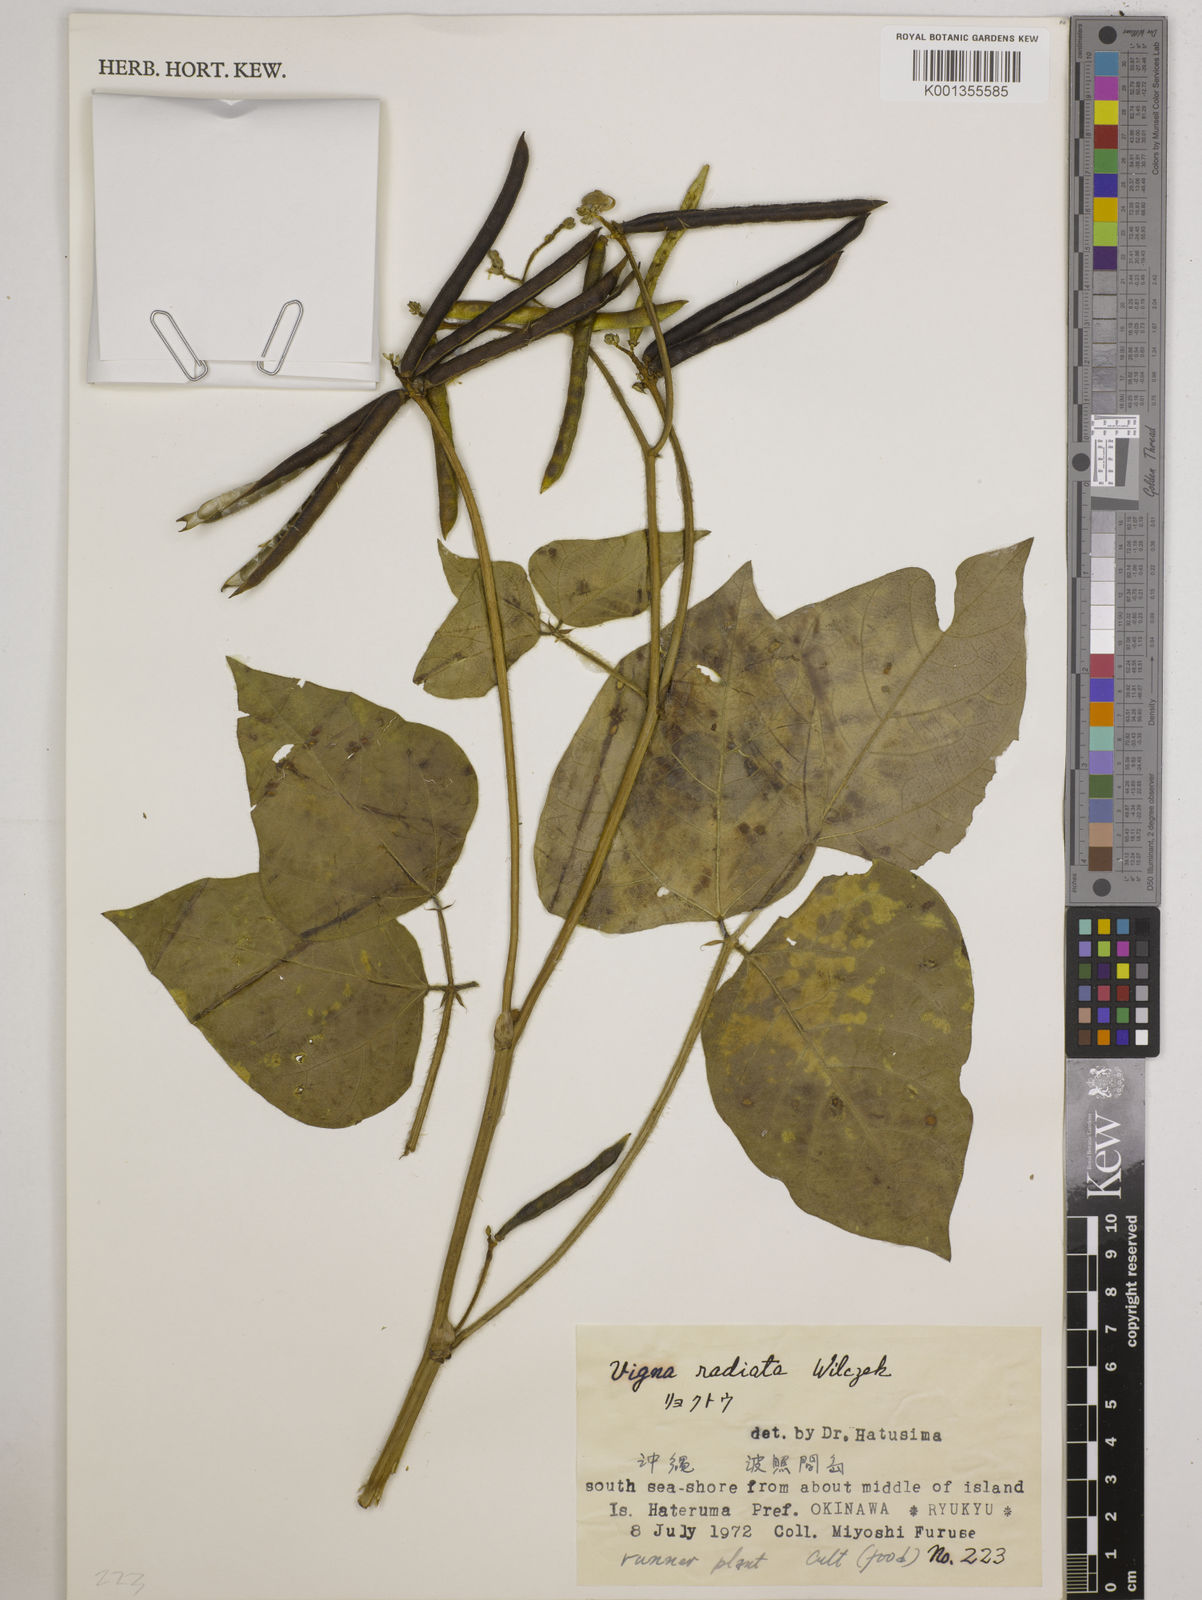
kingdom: Plantae
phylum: Tracheophyta
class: Magnoliopsida
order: Fabales
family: Fabaceae
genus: Vigna
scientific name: Vigna radiata
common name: Mung-bean
